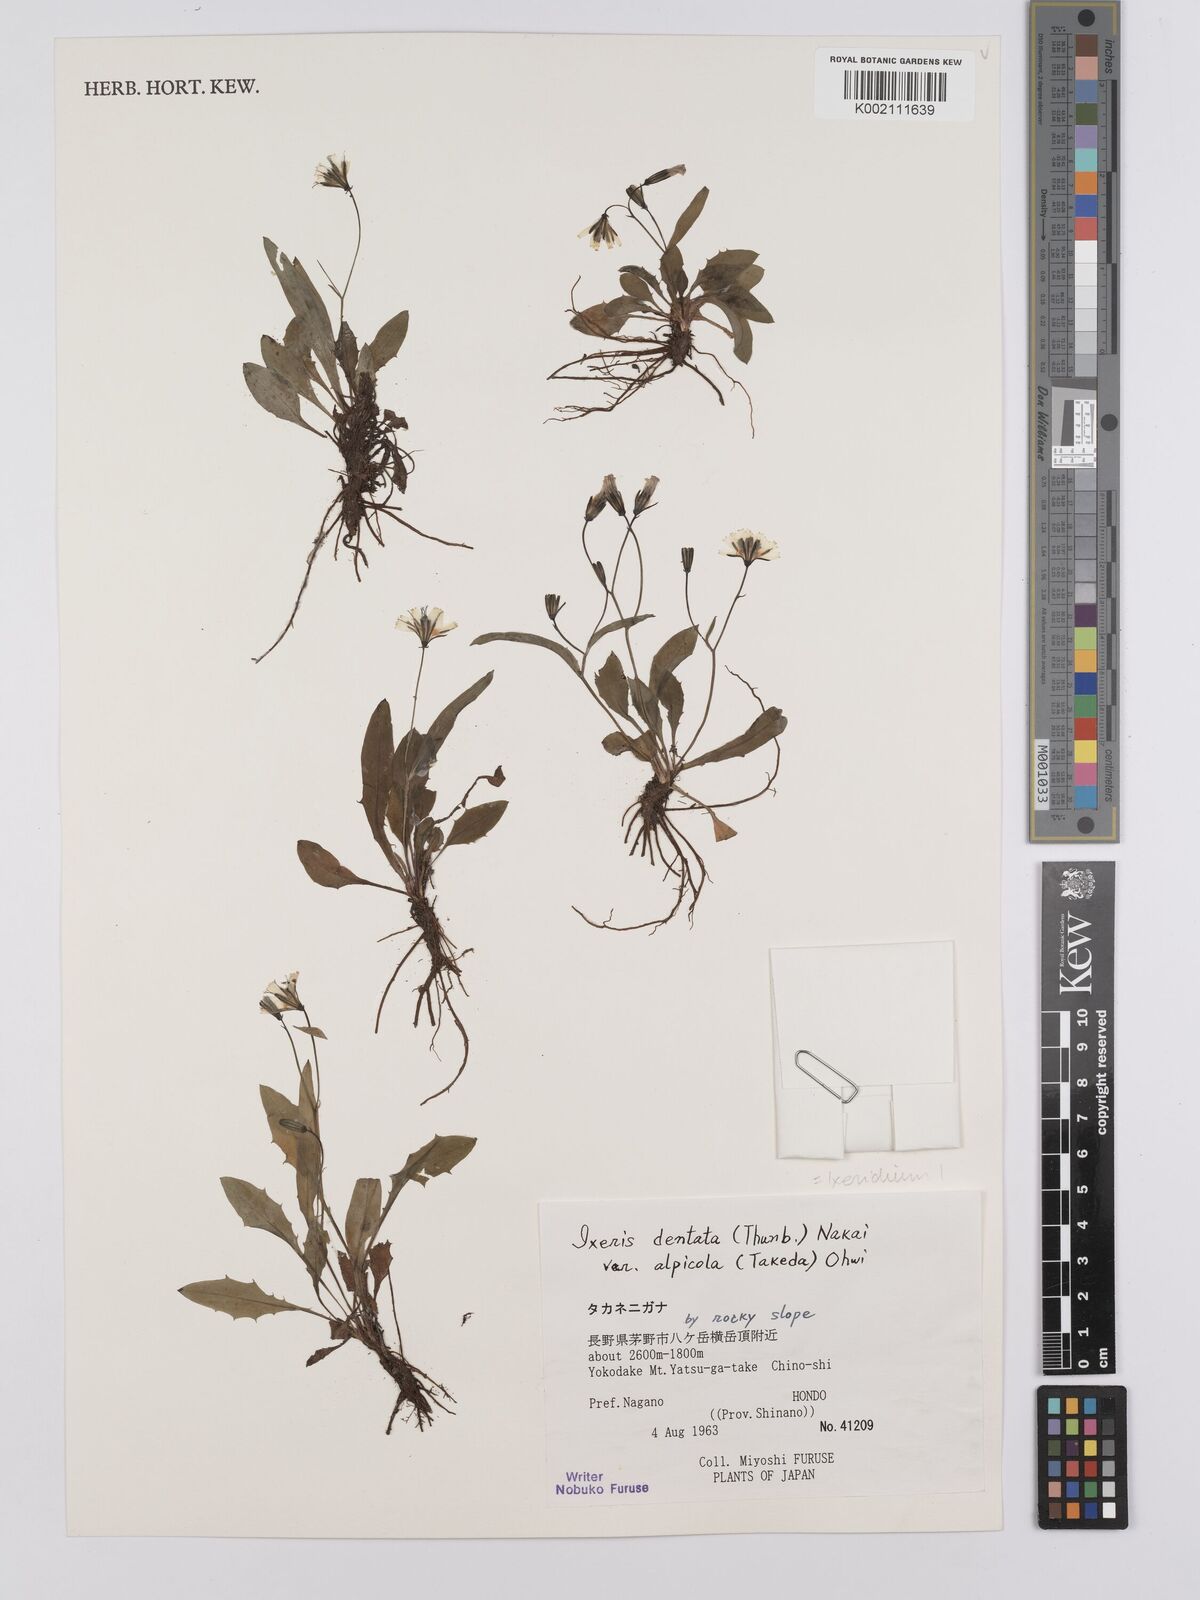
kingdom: Plantae
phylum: Tracheophyta
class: Magnoliopsida
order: Asterales
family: Asteraceae
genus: Ixeridium
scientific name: Ixeridium alpicola
